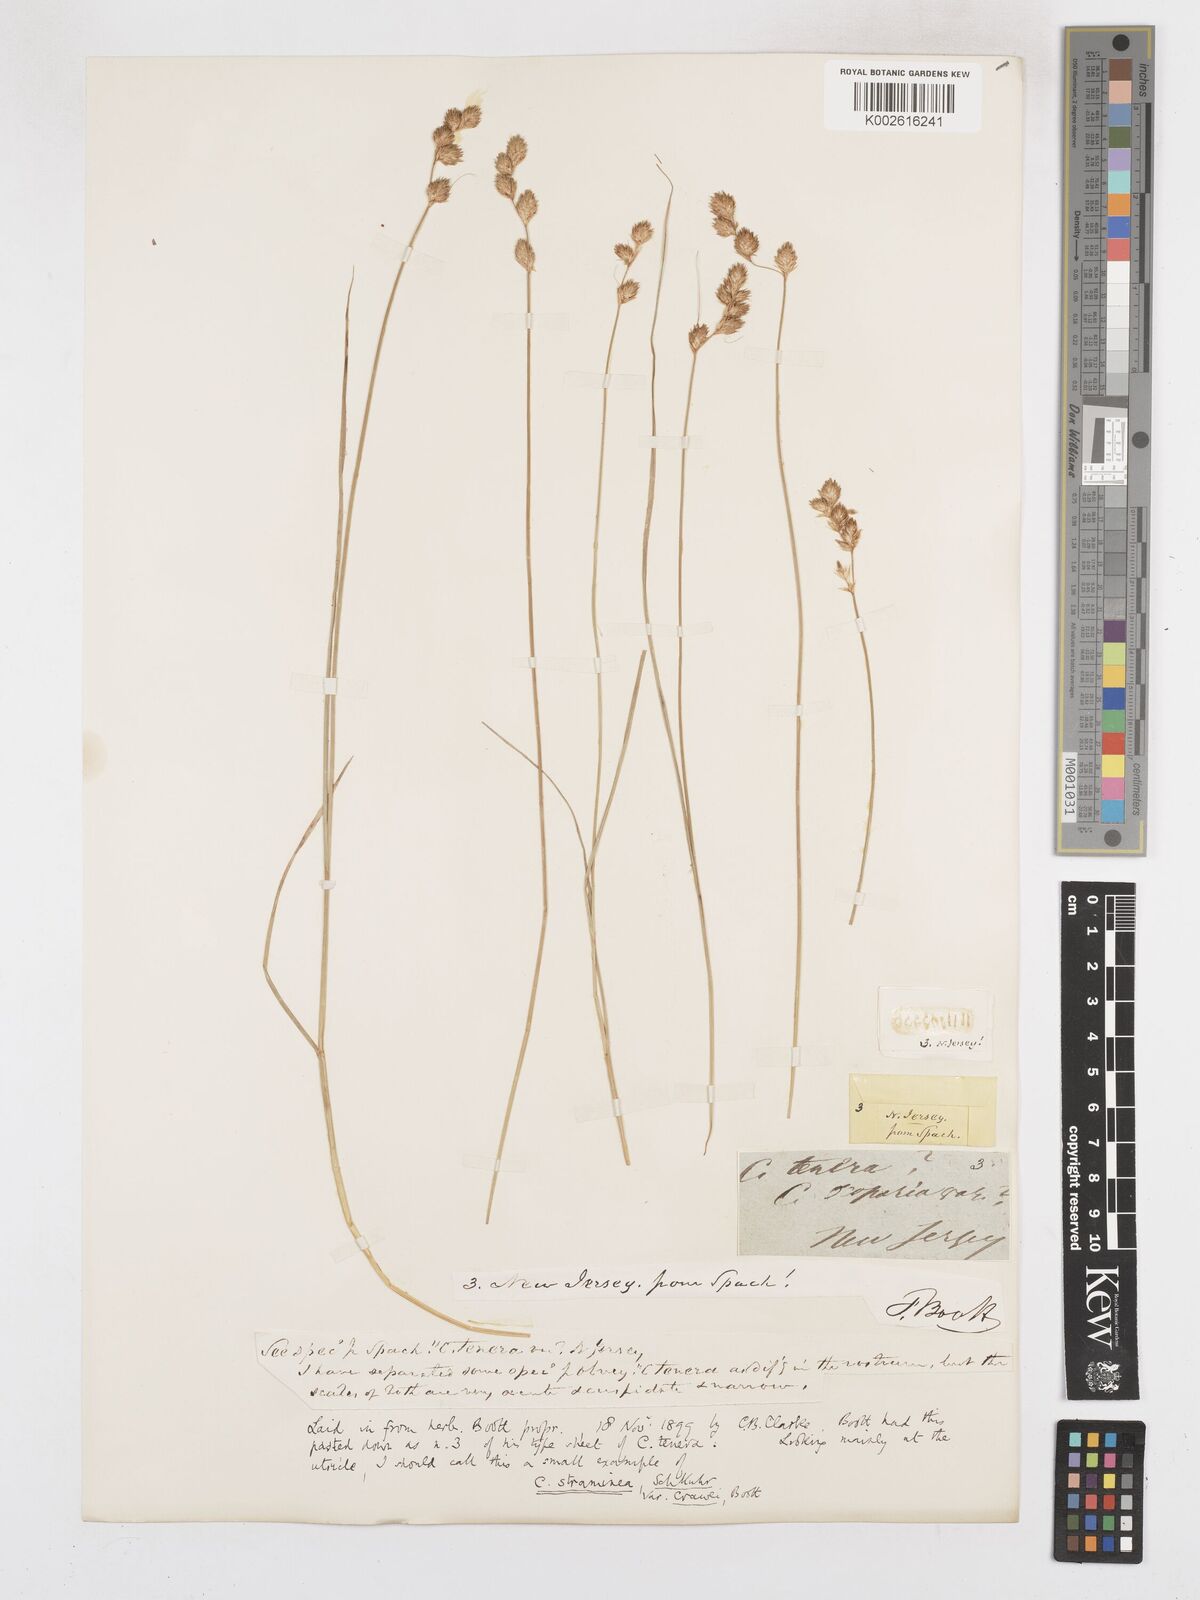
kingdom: Plantae
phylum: Tracheophyta
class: Liliopsida
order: Poales
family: Cyperaceae
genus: Carex
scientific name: Carex bicknellii
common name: Bicknell's sedge
